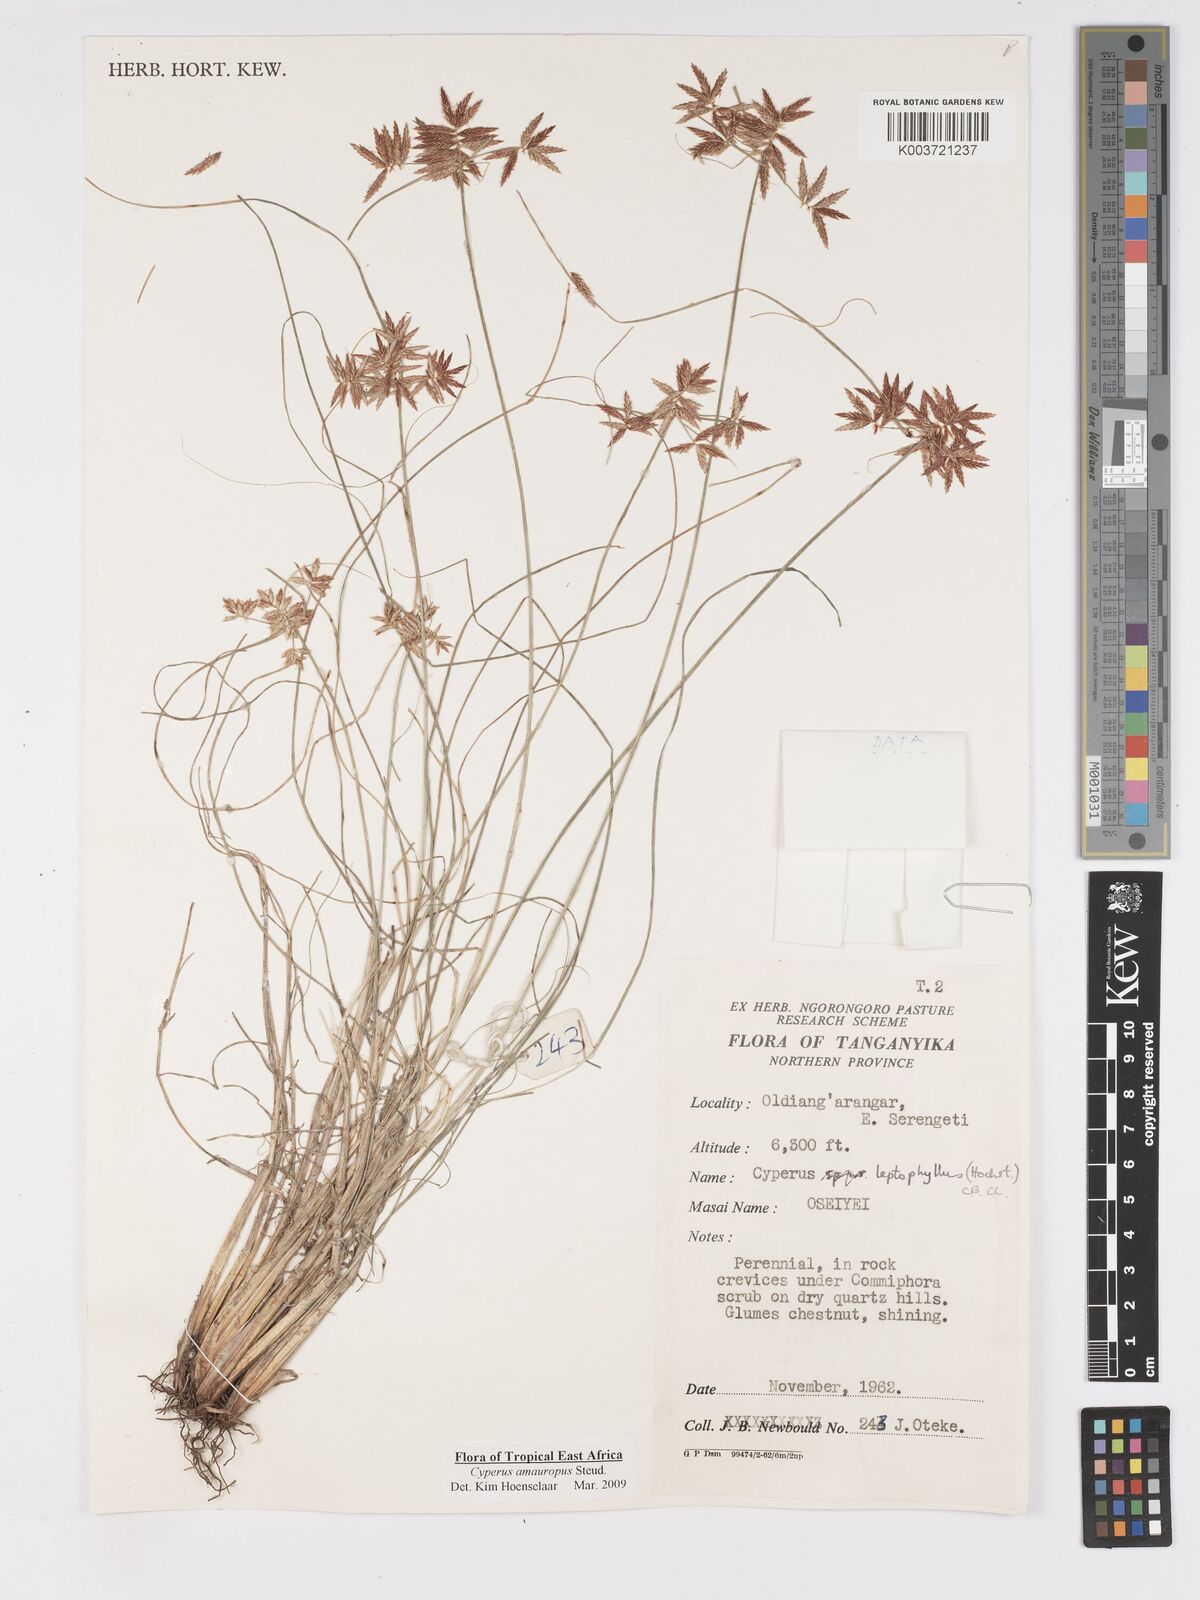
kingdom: Plantae
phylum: Tracheophyta
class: Liliopsida
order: Poales
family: Cyperaceae
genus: Cyperus
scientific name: Cyperus amauropus
